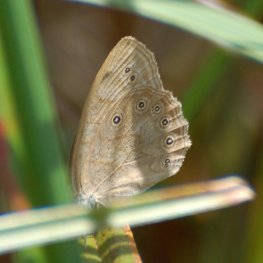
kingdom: Animalia
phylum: Arthropoda
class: Insecta
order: Lepidoptera
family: Nymphalidae
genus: Lethe
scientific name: Lethe eurydice
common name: Eyed Brown
